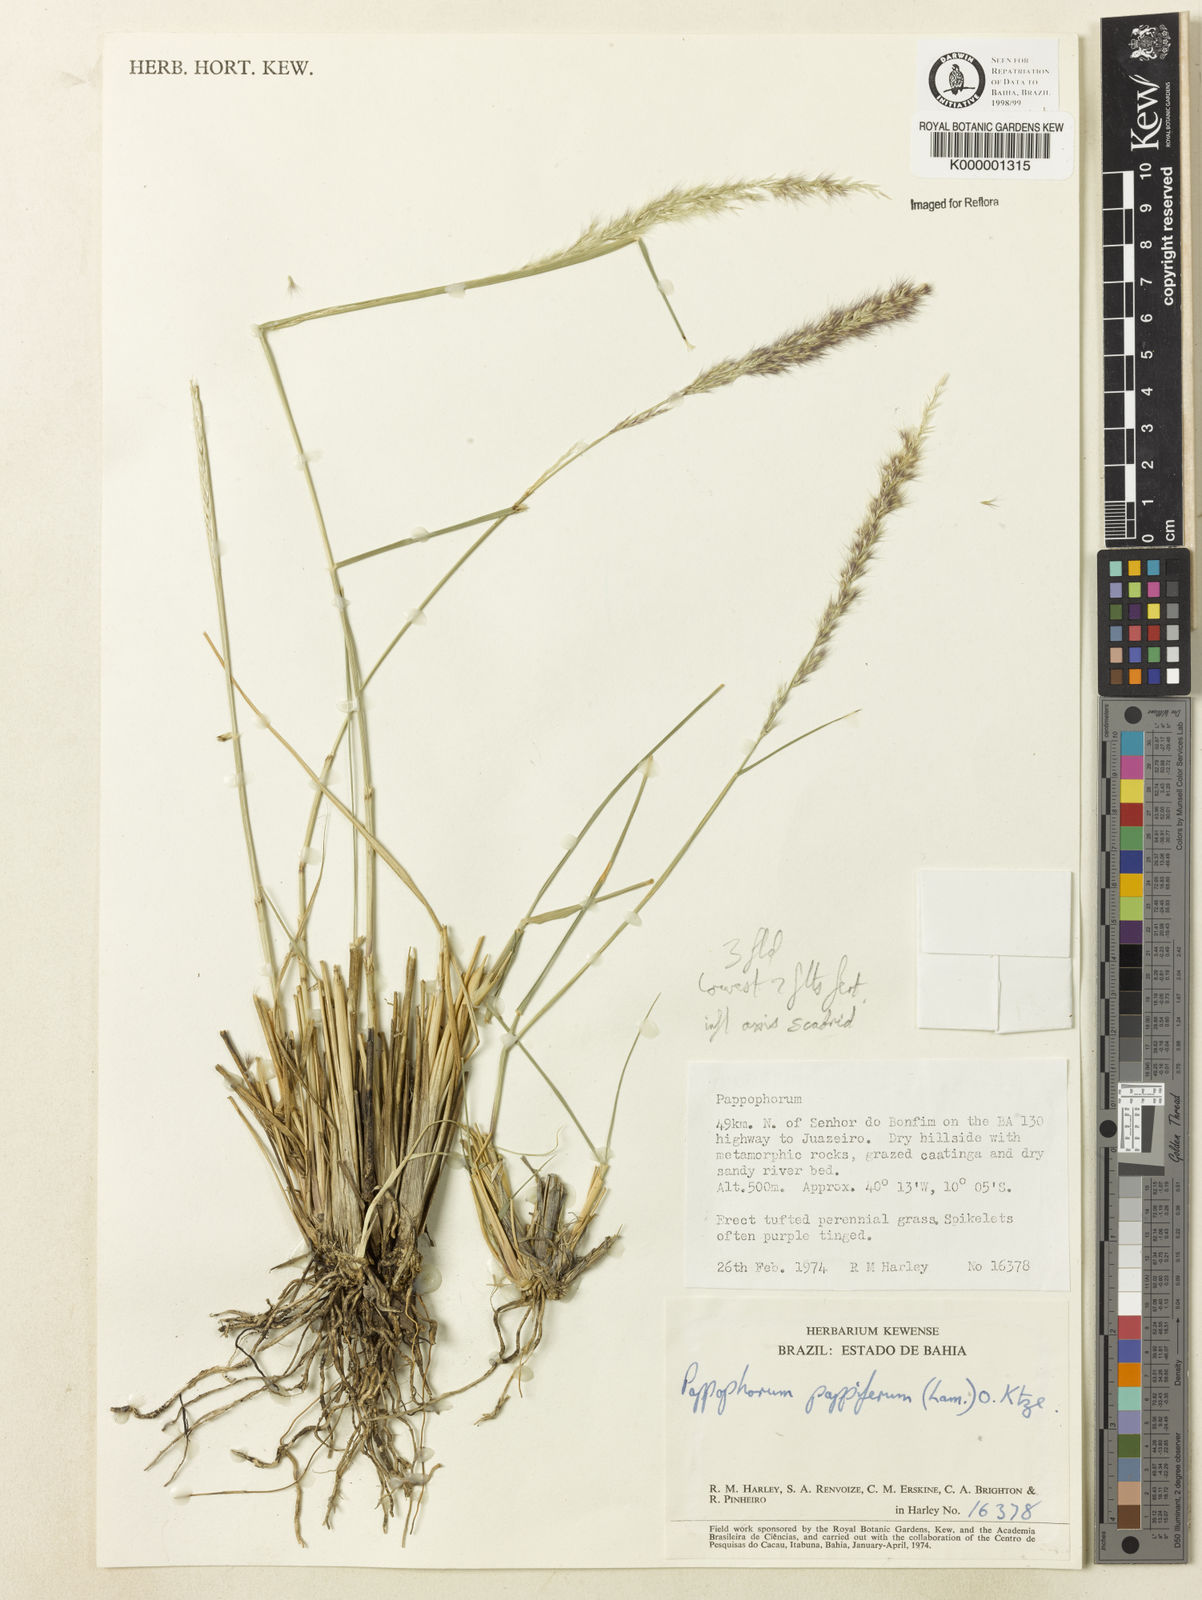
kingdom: Plantae
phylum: Tracheophyta
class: Liliopsida
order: Poales
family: Poaceae
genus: Pappophorum
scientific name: Pappophorum mucronulatum
